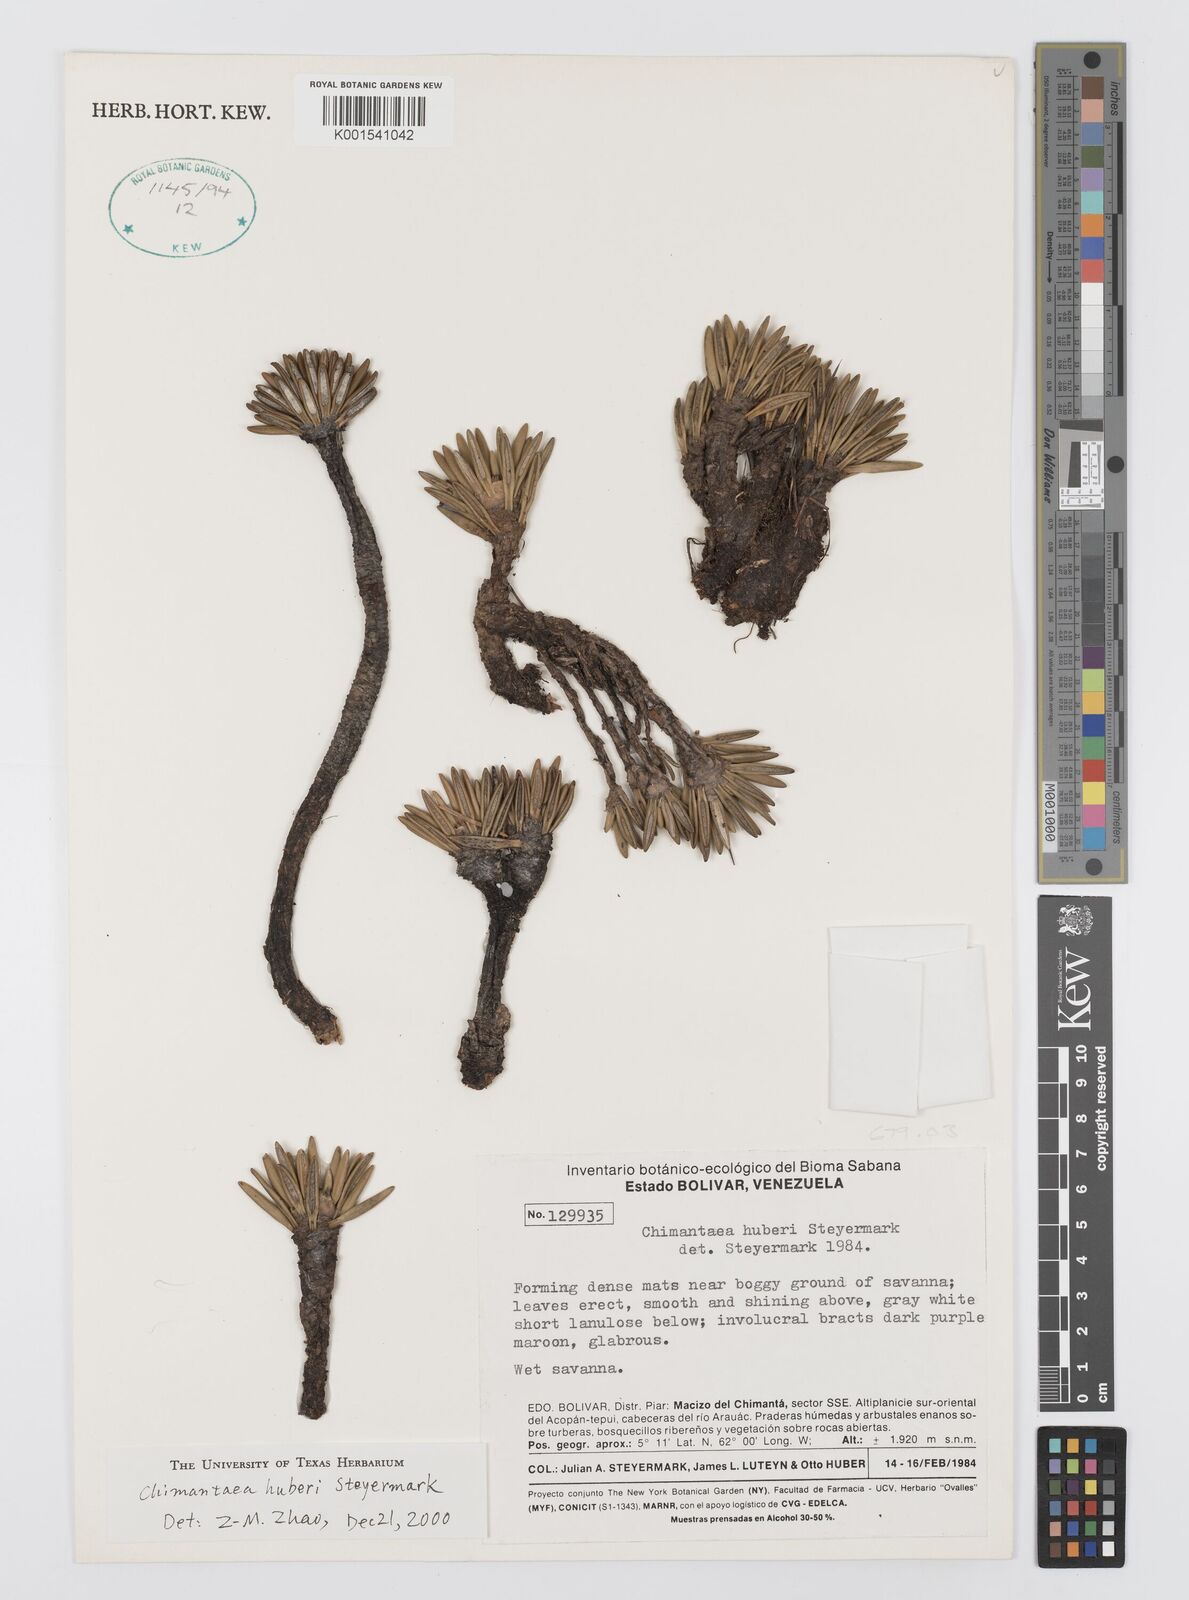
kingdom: Plantae
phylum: Tracheophyta
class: Magnoliopsida
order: Asterales
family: Asteraceae
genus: Chimantaea
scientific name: Chimantaea huberi
